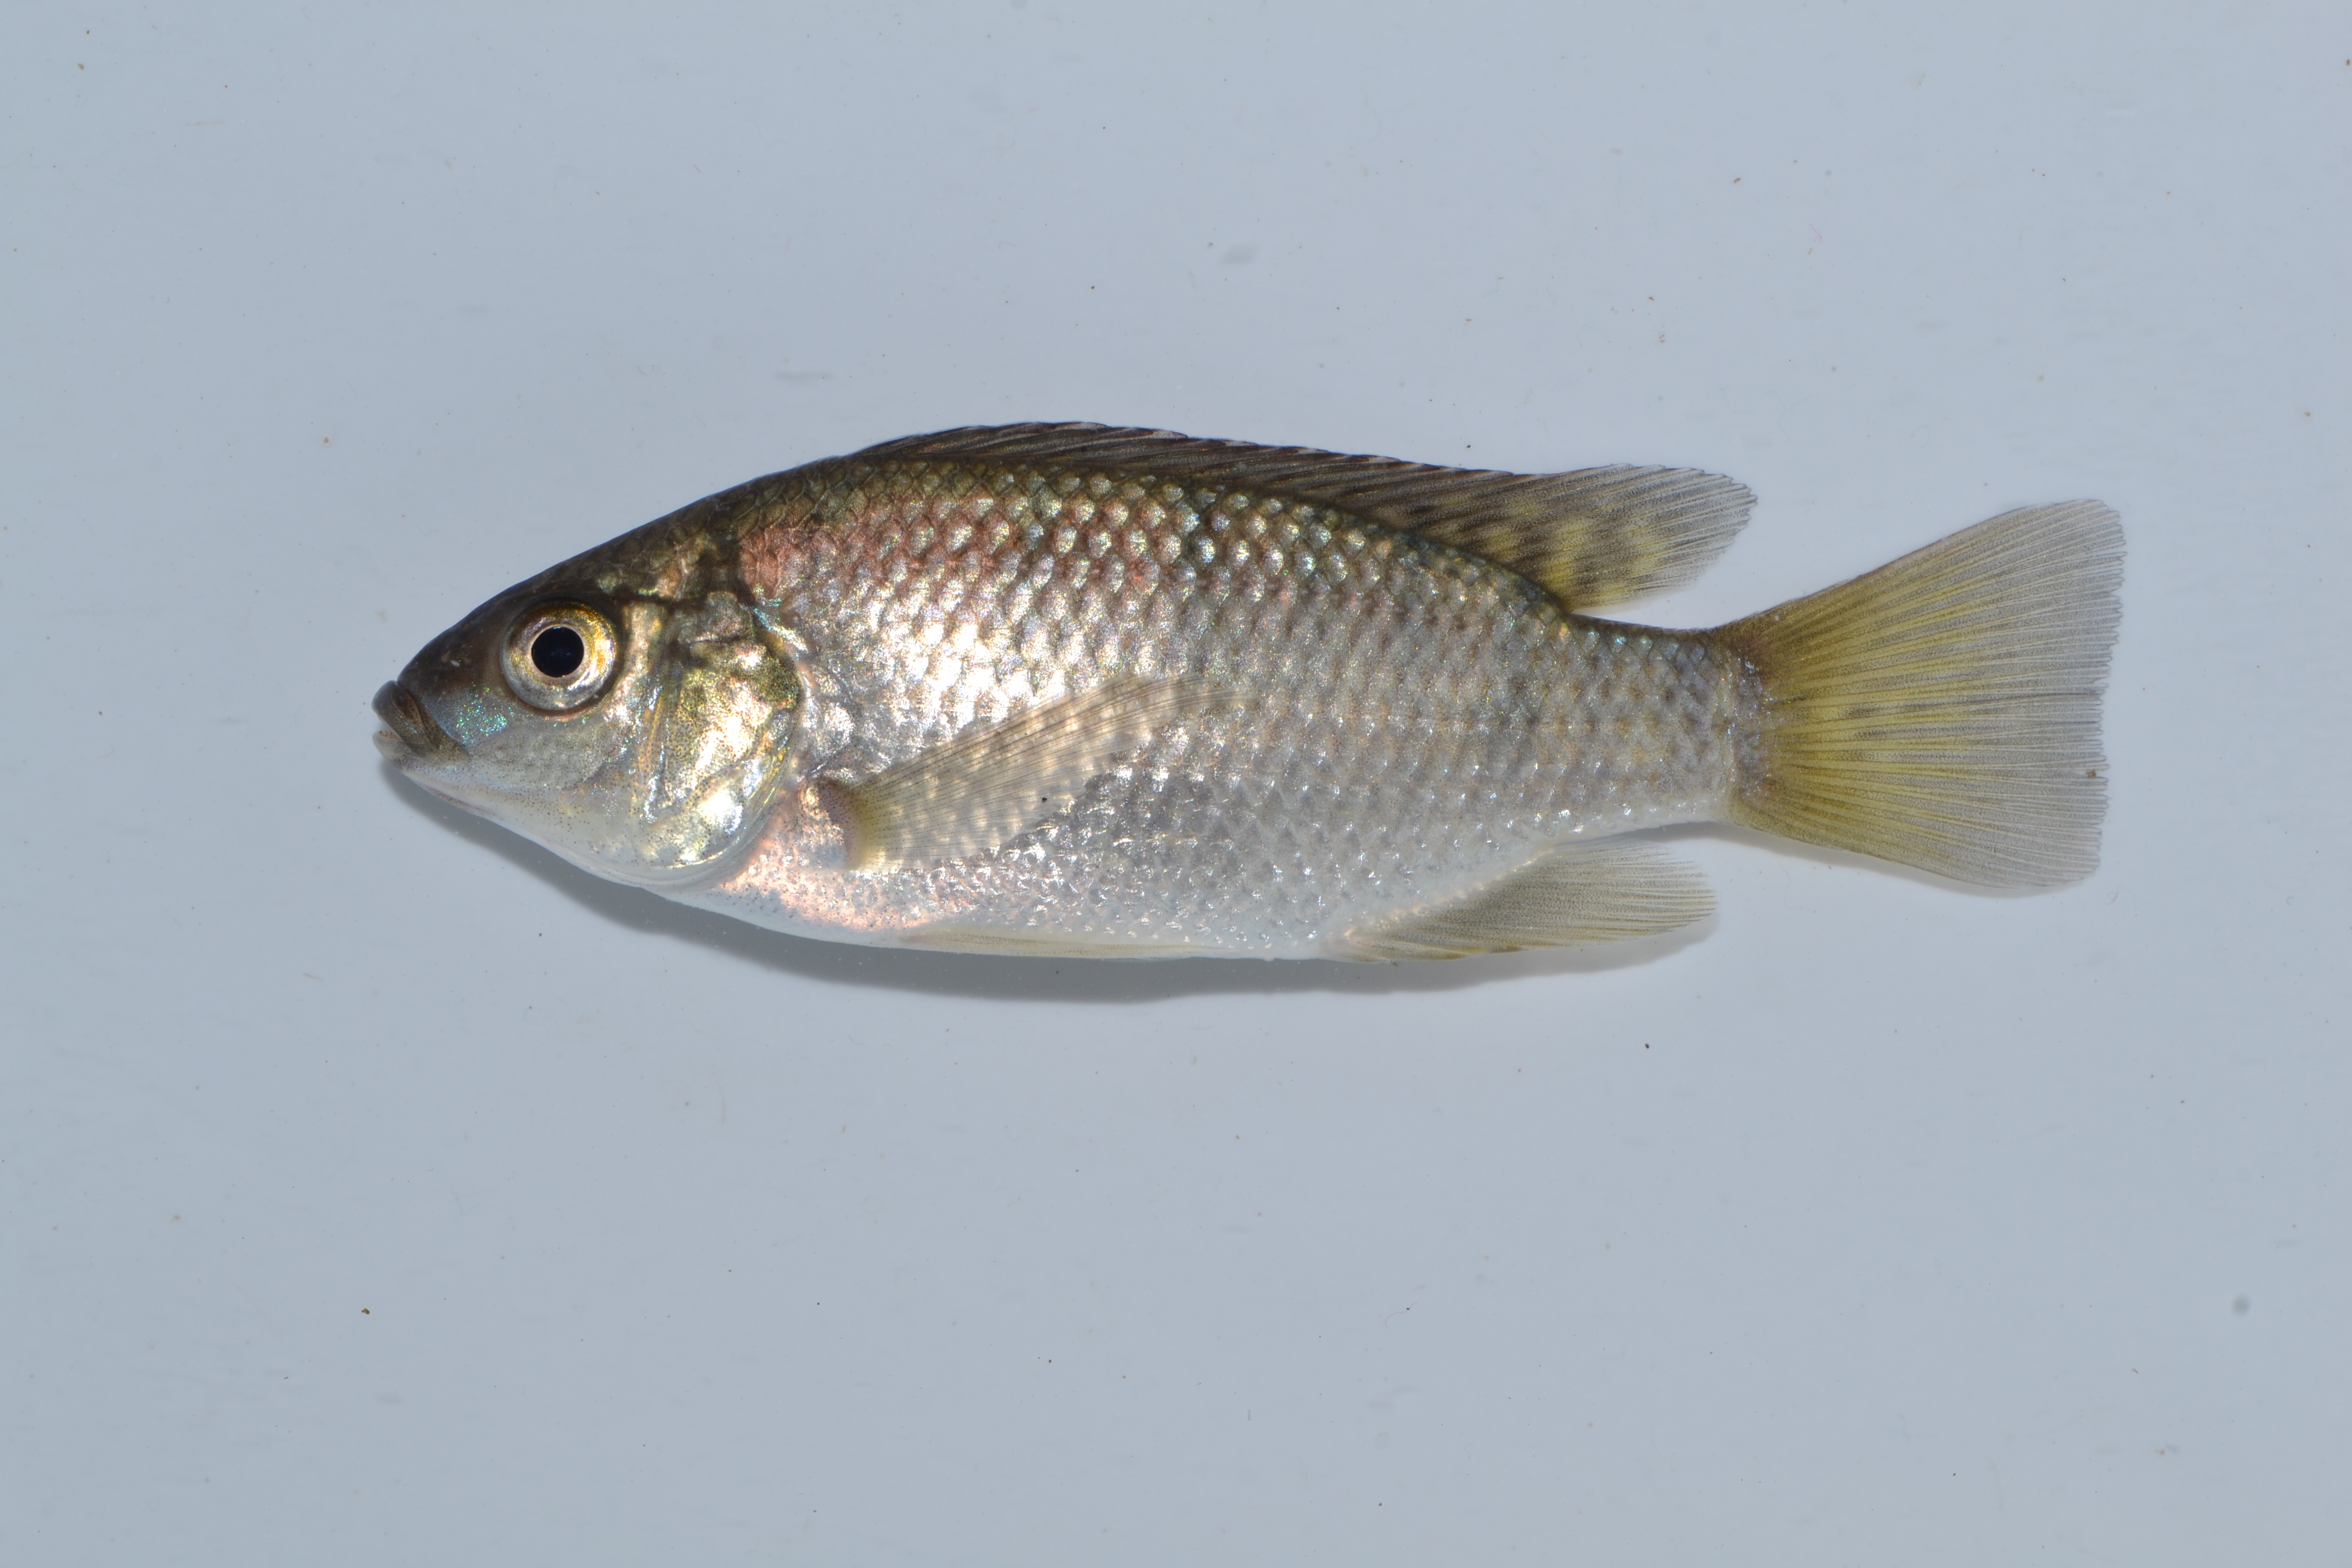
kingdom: Animalia
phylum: Chordata
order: Perciformes
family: Cichlidae
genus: Oreochromis
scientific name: Oreochromis mossambicus
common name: Mozambique tilapia
